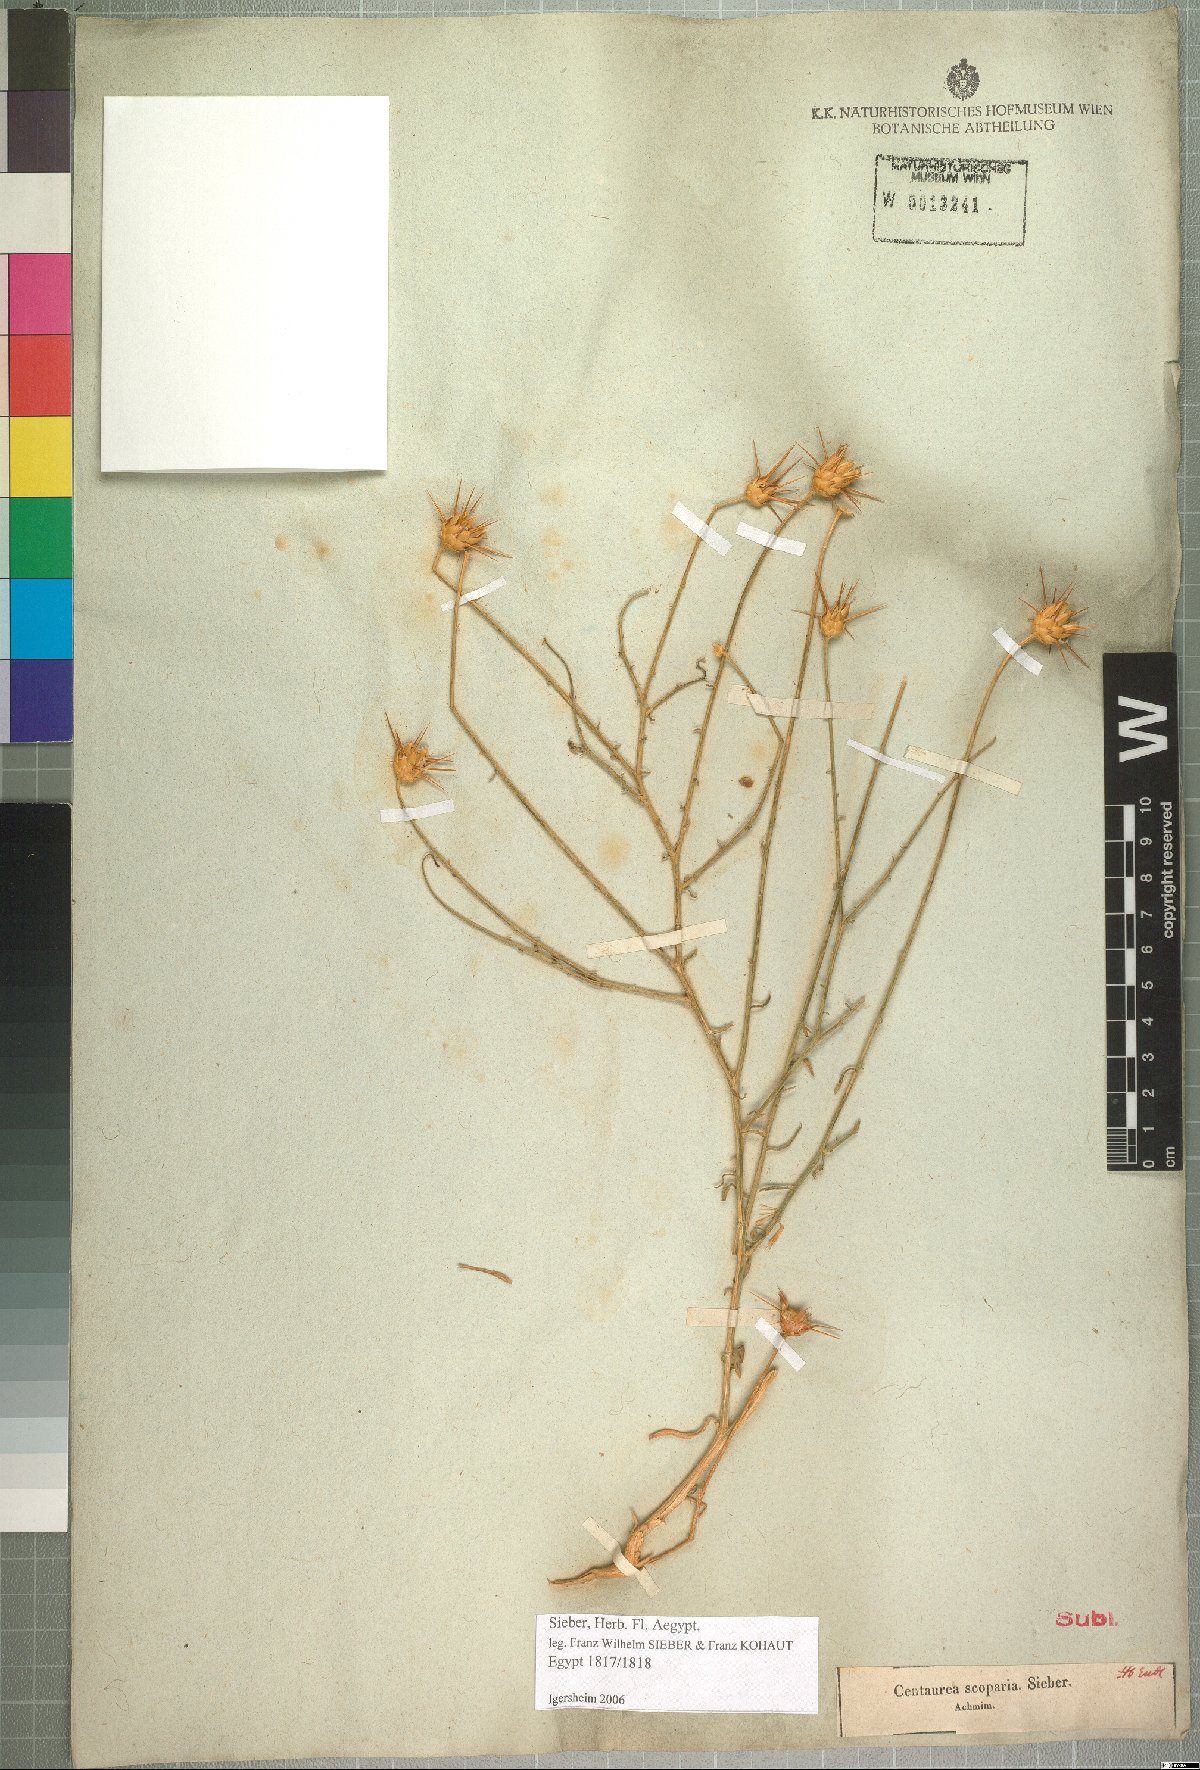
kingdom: Plantae
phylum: Tracheophyta
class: Magnoliopsida
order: Asterales
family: Asteraceae
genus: Centaurea
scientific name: Centaurea scoparia
